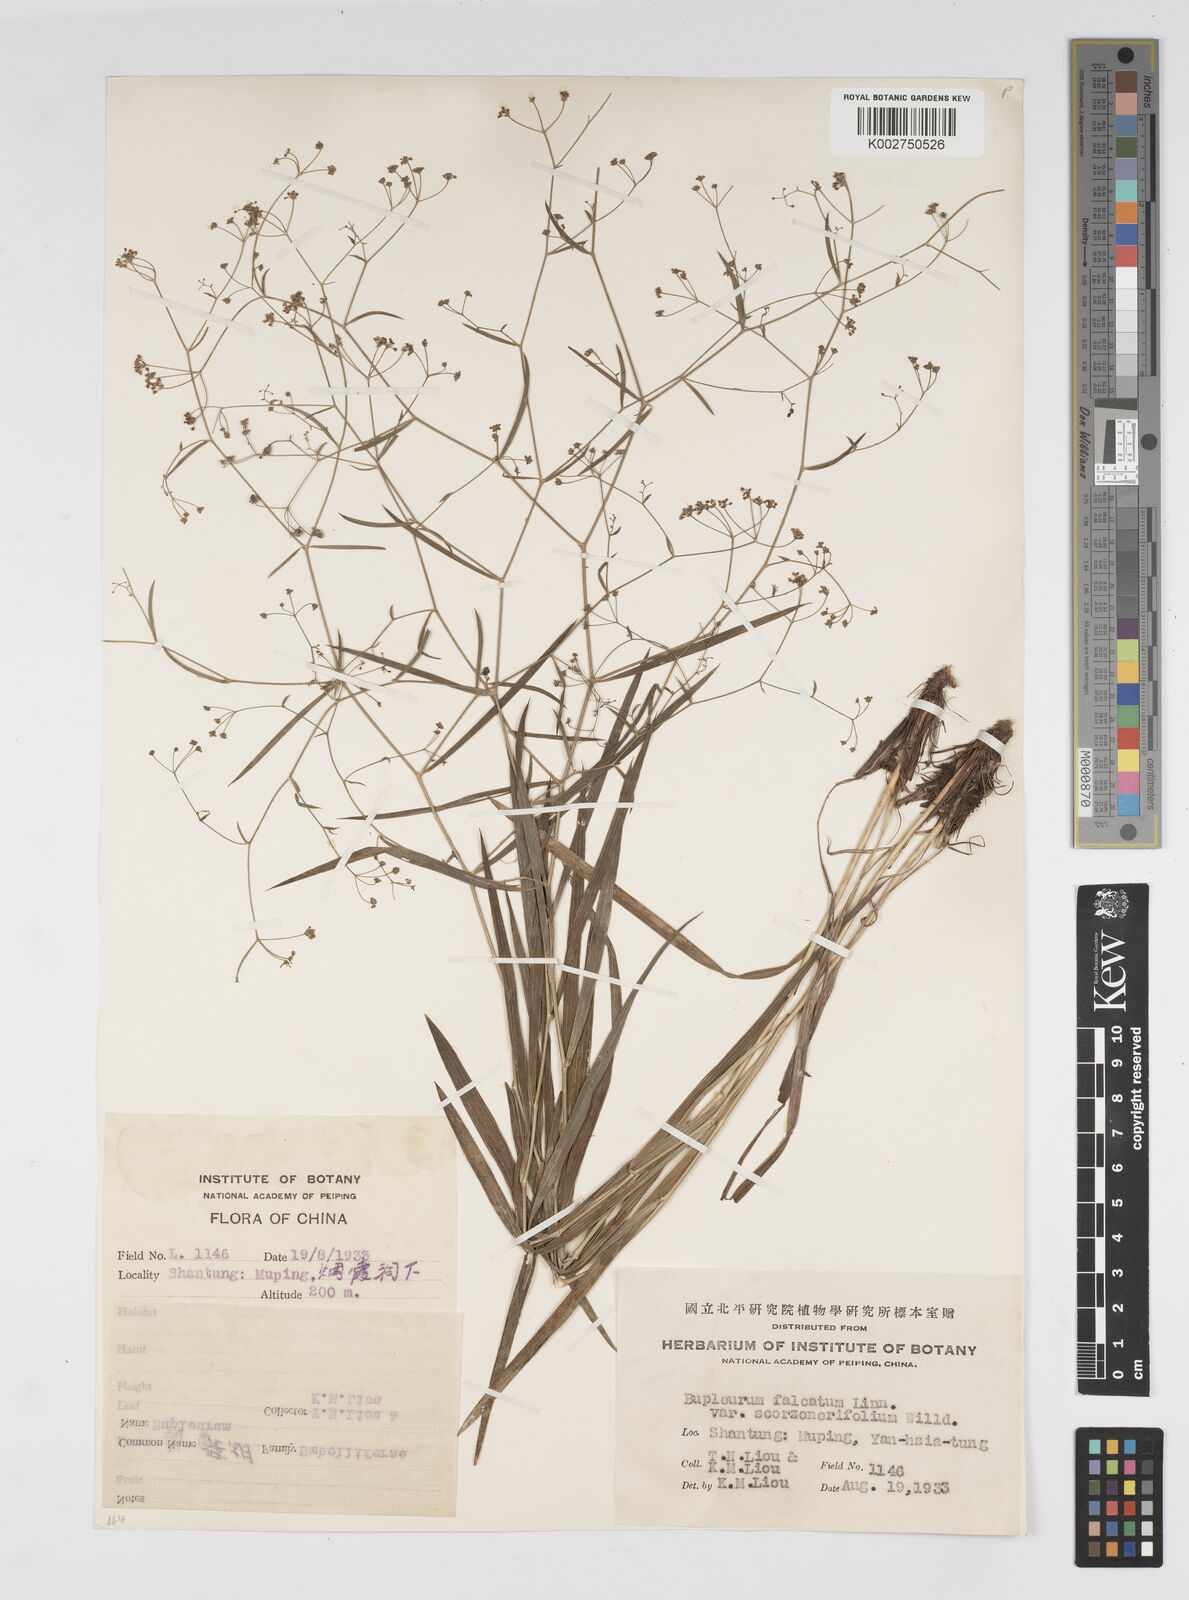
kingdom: Plantae
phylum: Tracheophyta
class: Magnoliopsida
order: Apiales
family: Apiaceae
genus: Bupleurum
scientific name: Bupleurum scorzonerifolium
